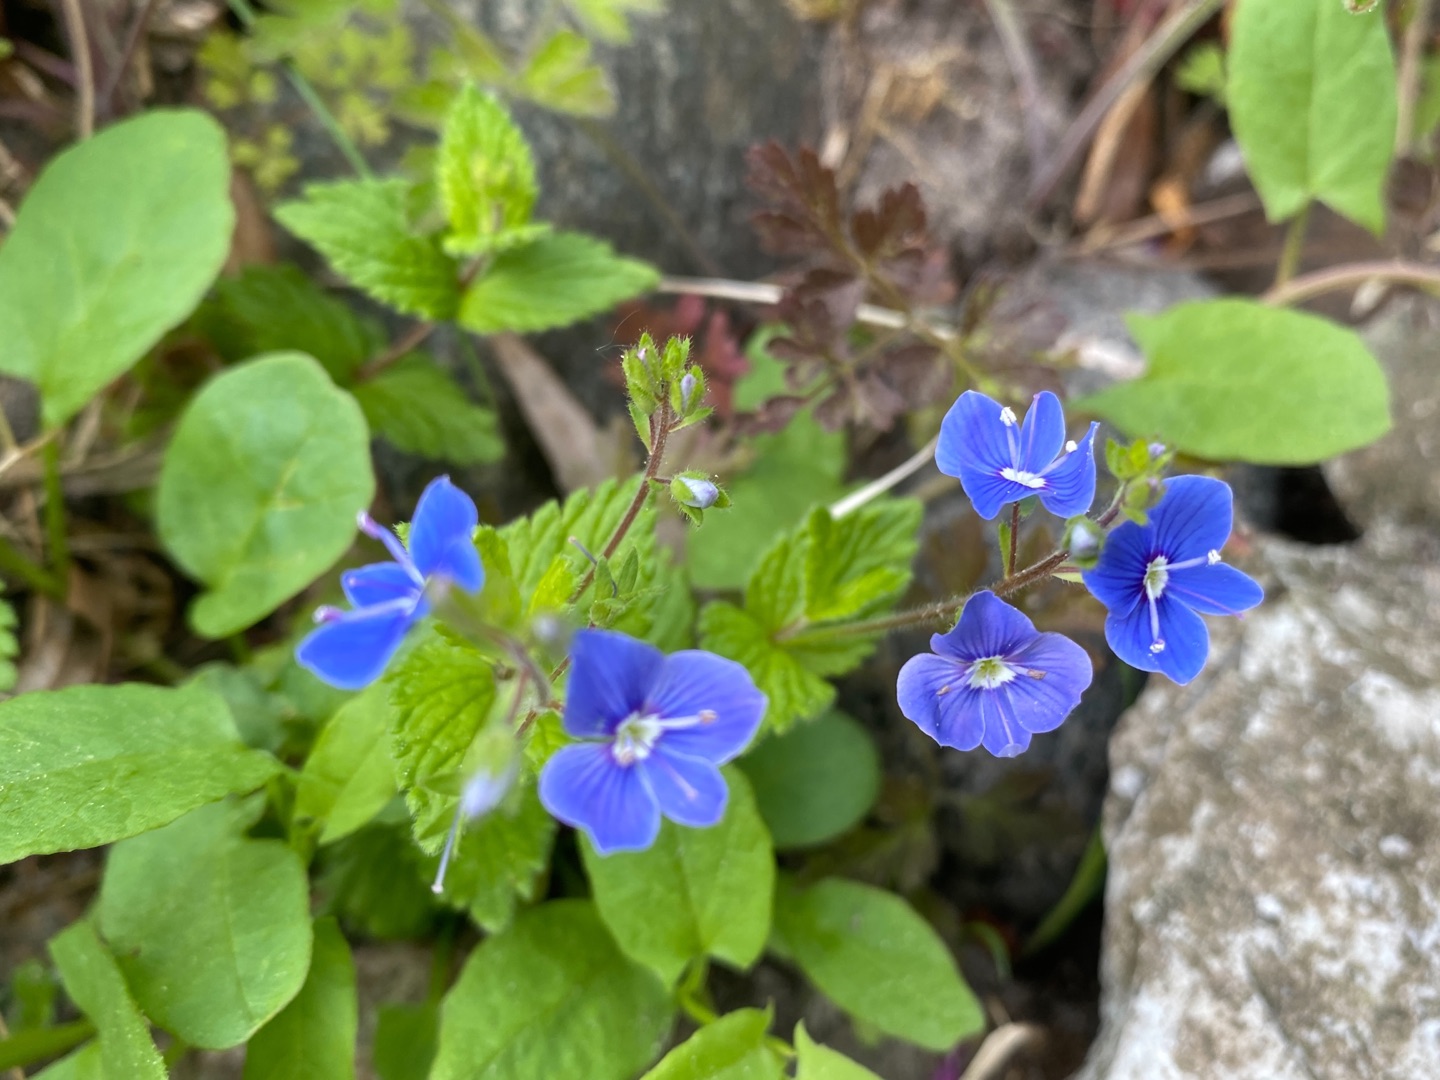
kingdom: Plantae
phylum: Tracheophyta
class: Magnoliopsida
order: Lamiales
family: Plantaginaceae
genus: Veronica
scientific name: Veronica chamaedrys
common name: Tveskægget ærenpris
